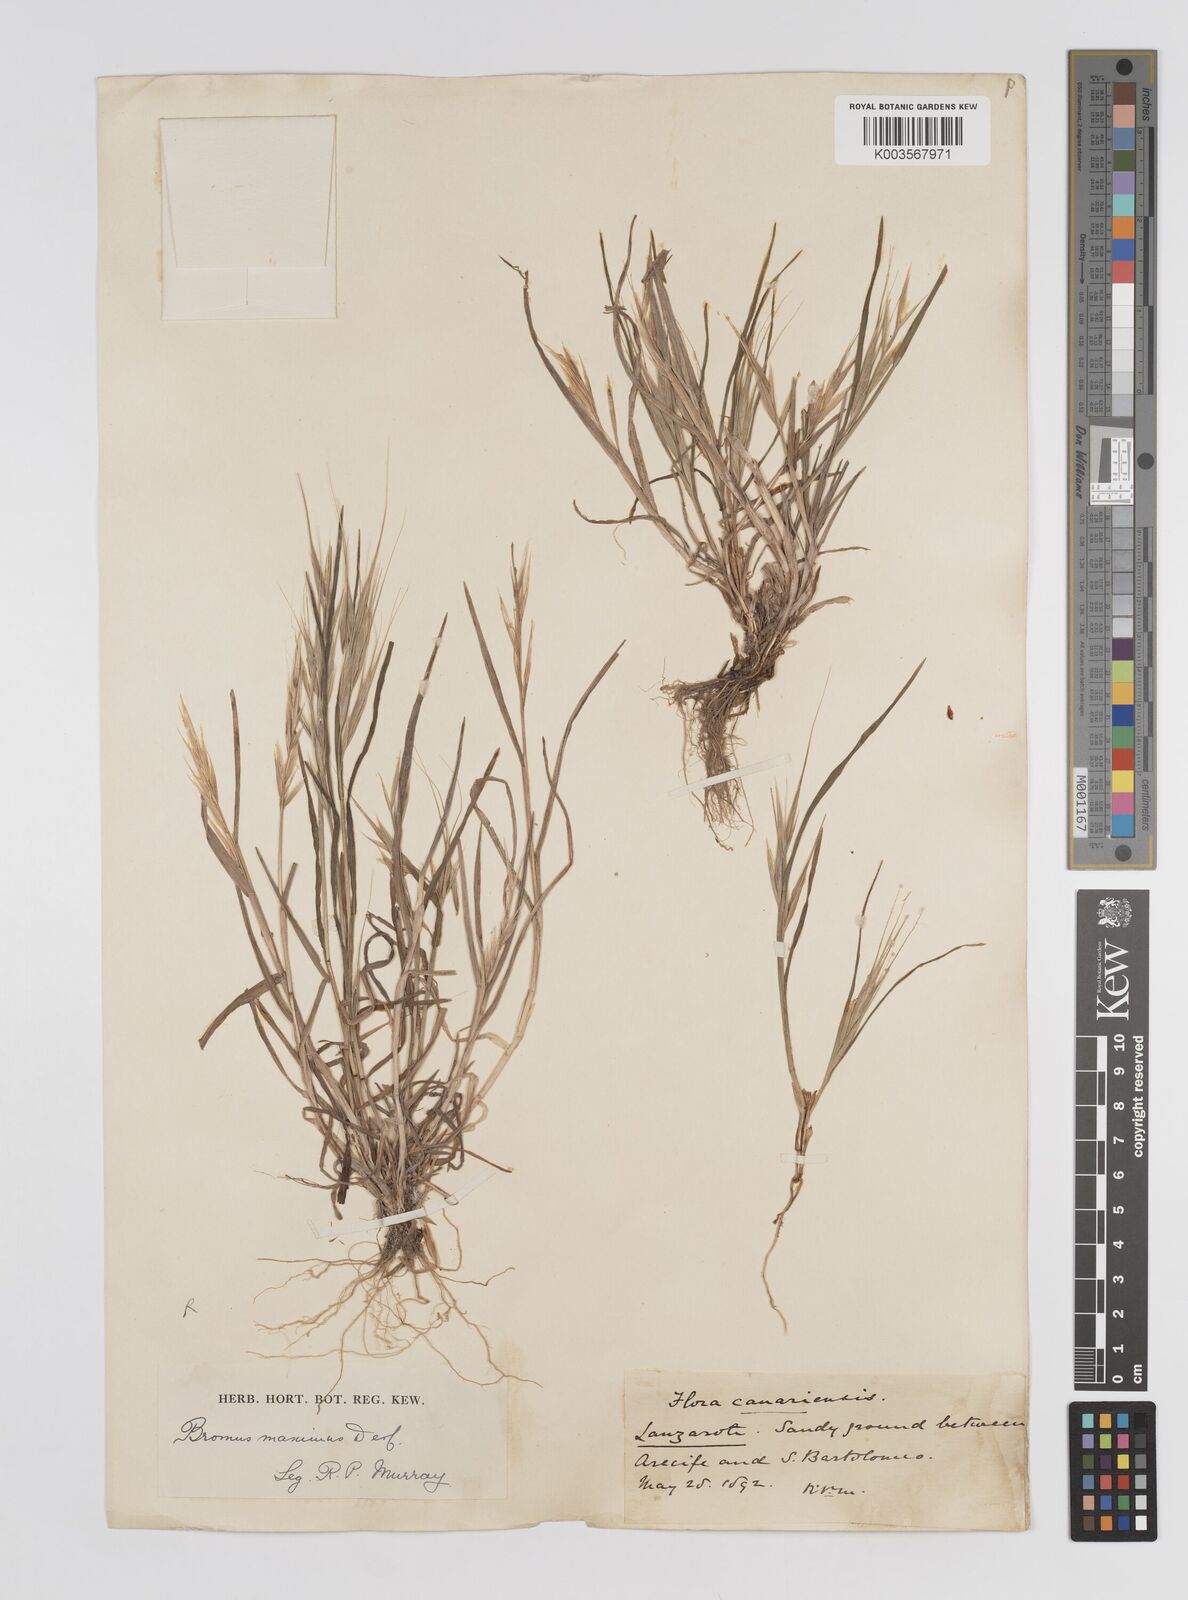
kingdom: Plantae
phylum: Tracheophyta
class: Liliopsida
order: Poales
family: Poaceae
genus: Bromus
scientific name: Bromus rigidus
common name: Ripgut brome
